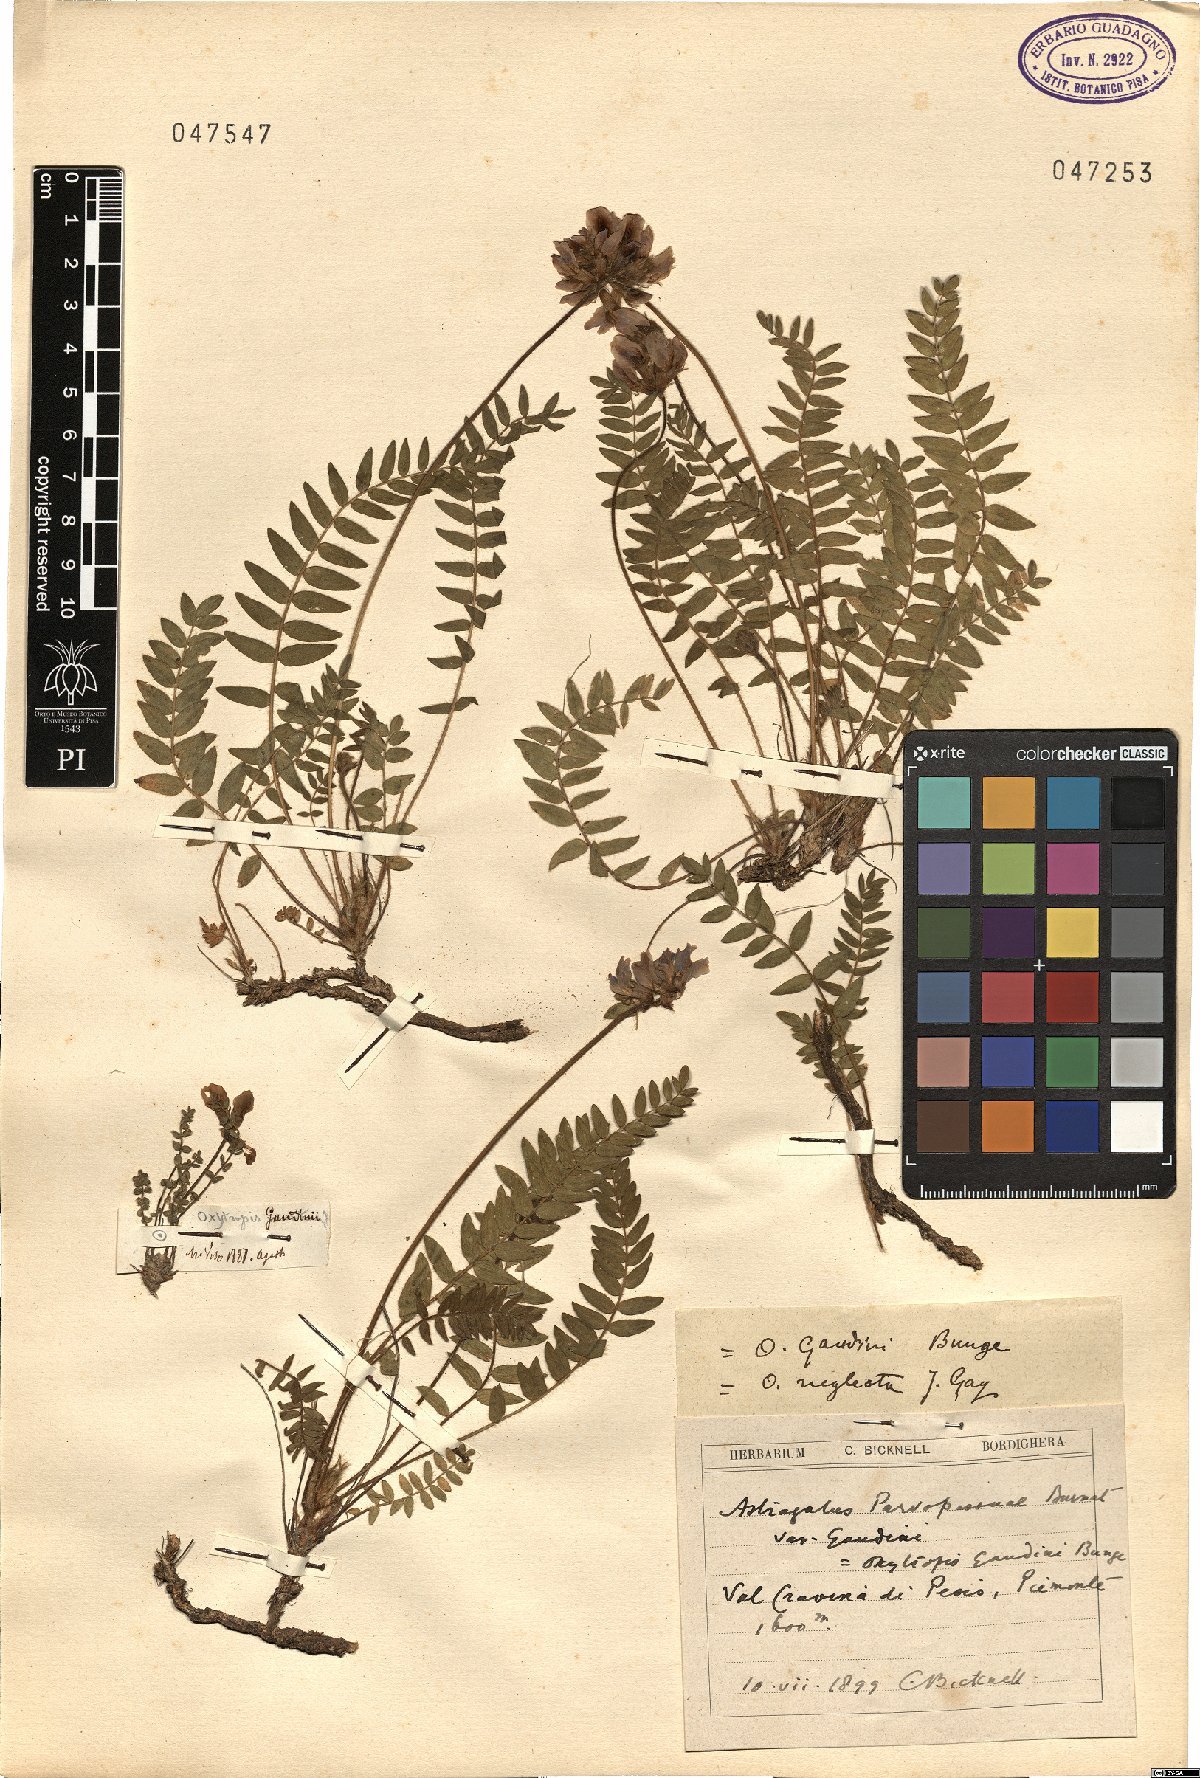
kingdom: Plantae
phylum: Tracheophyta
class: Magnoliopsida
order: Fabales
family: Fabaceae
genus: Oxytropis
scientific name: Oxytropis helvetica
